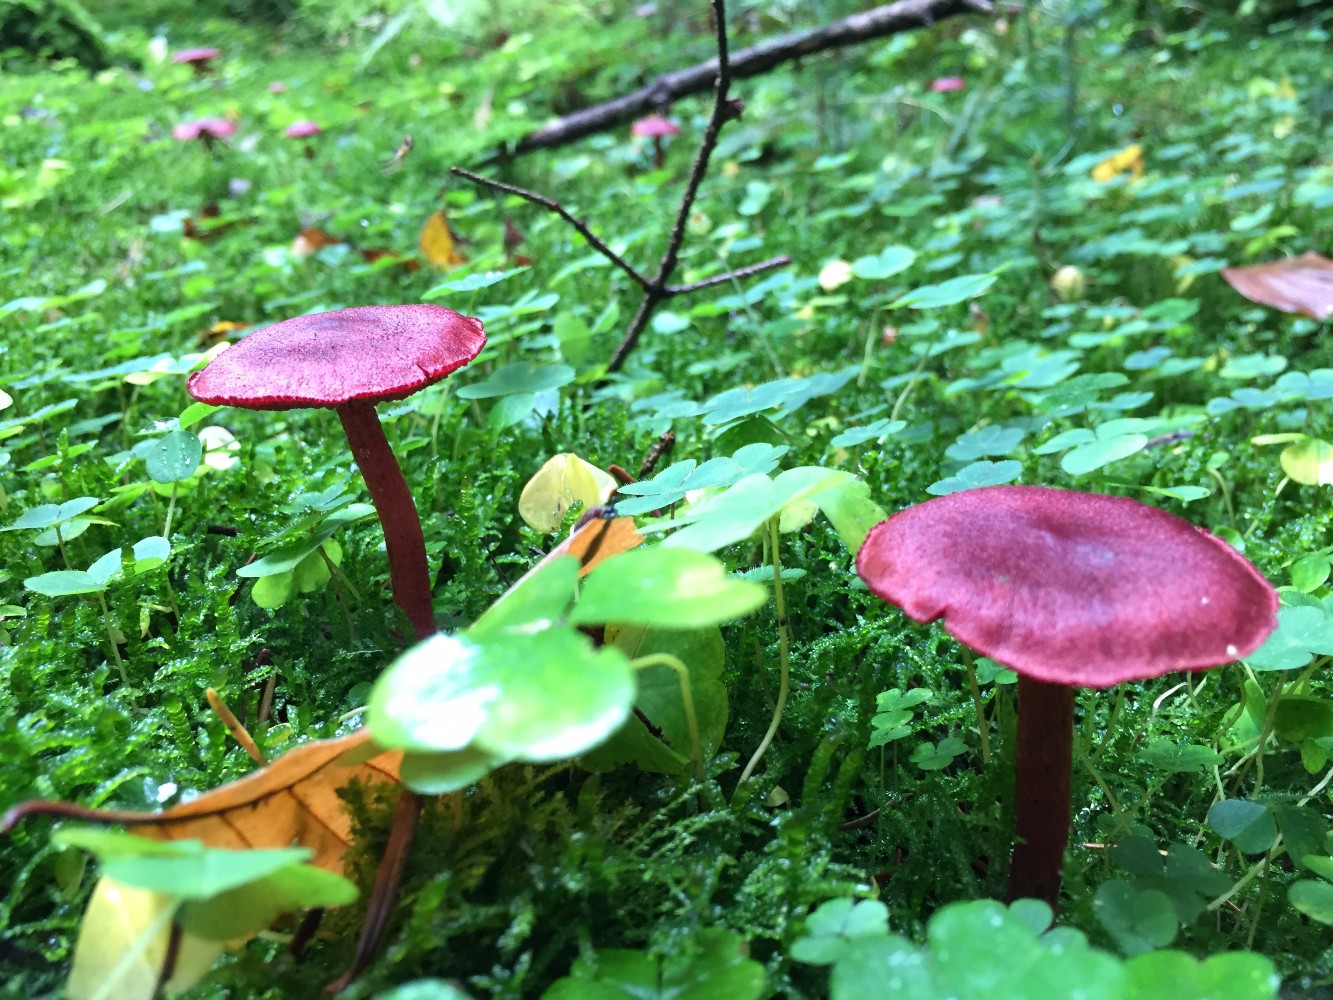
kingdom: Fungi
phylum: Basidiomycota
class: Agaricomycetes
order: Agaricales
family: Cortinariaceae
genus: Cortinarius
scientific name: Cortinarius sanguineus
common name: blodrød slørhat
